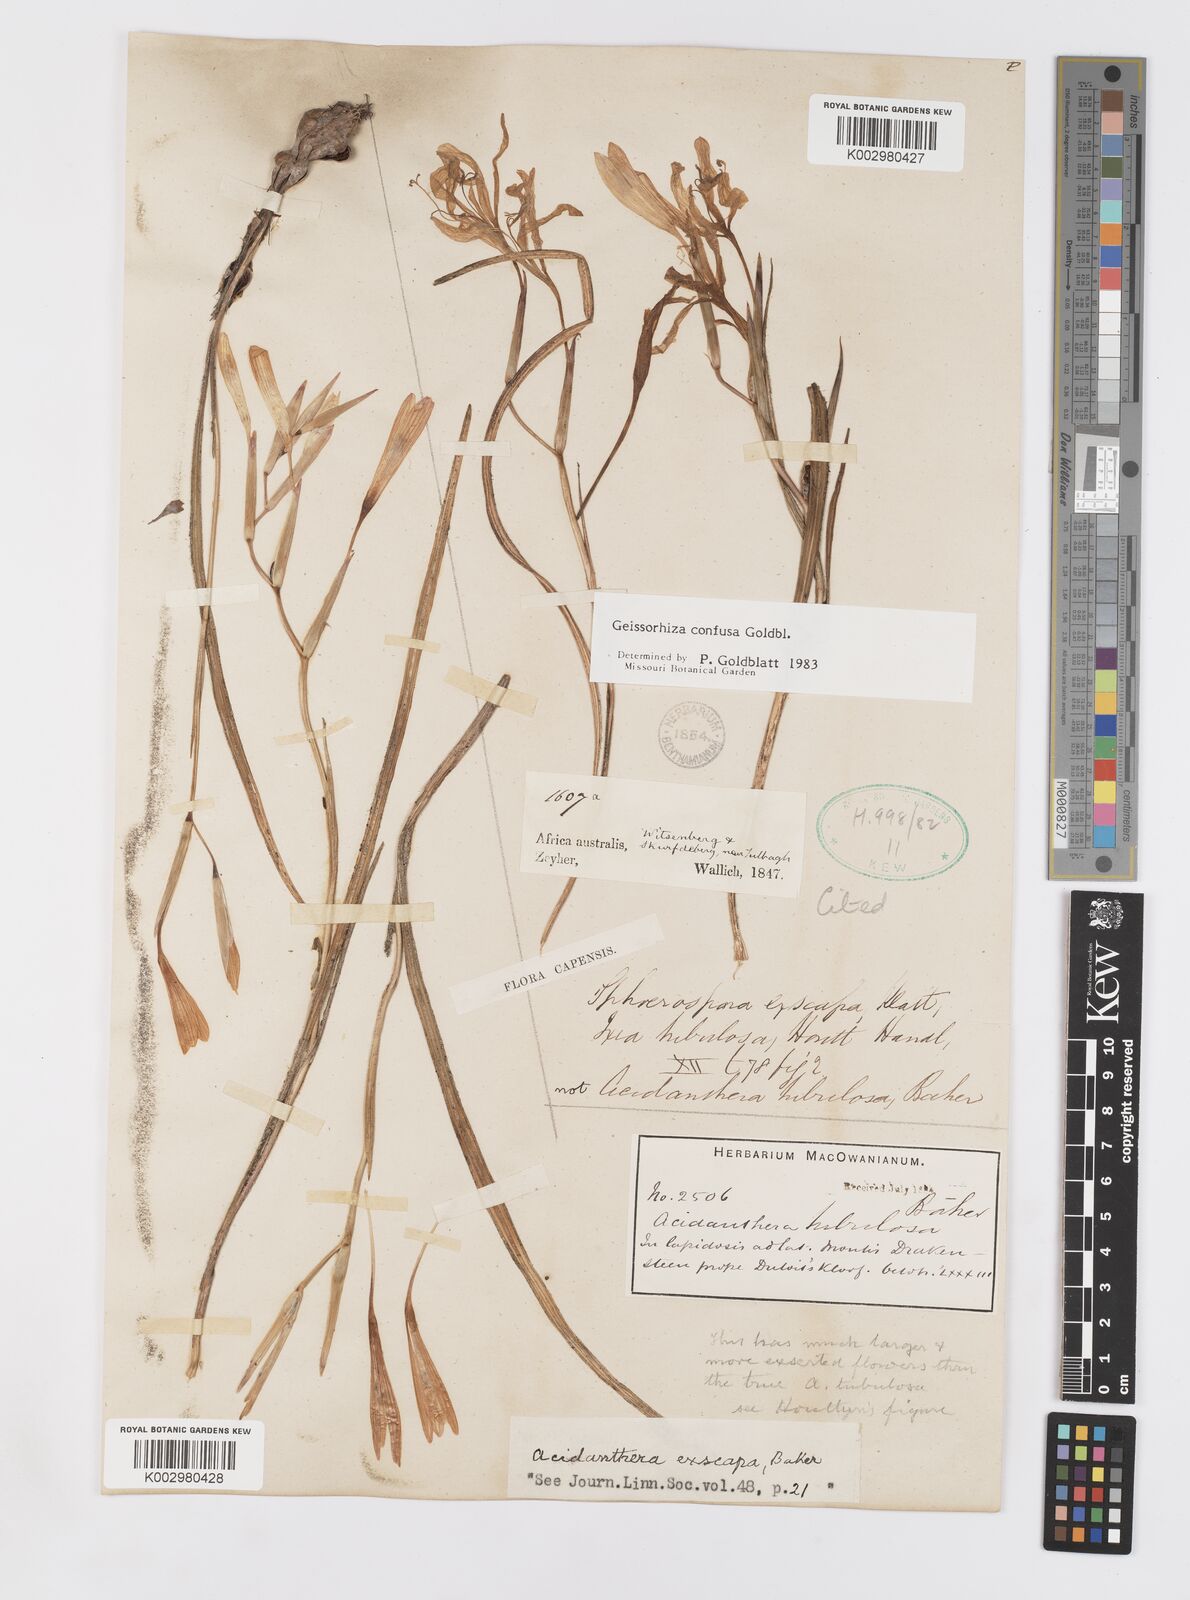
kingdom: Plantae
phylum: Tracheophyta
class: Liliopsida
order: Asparagales
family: Iridaceae
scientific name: Iridaceae
